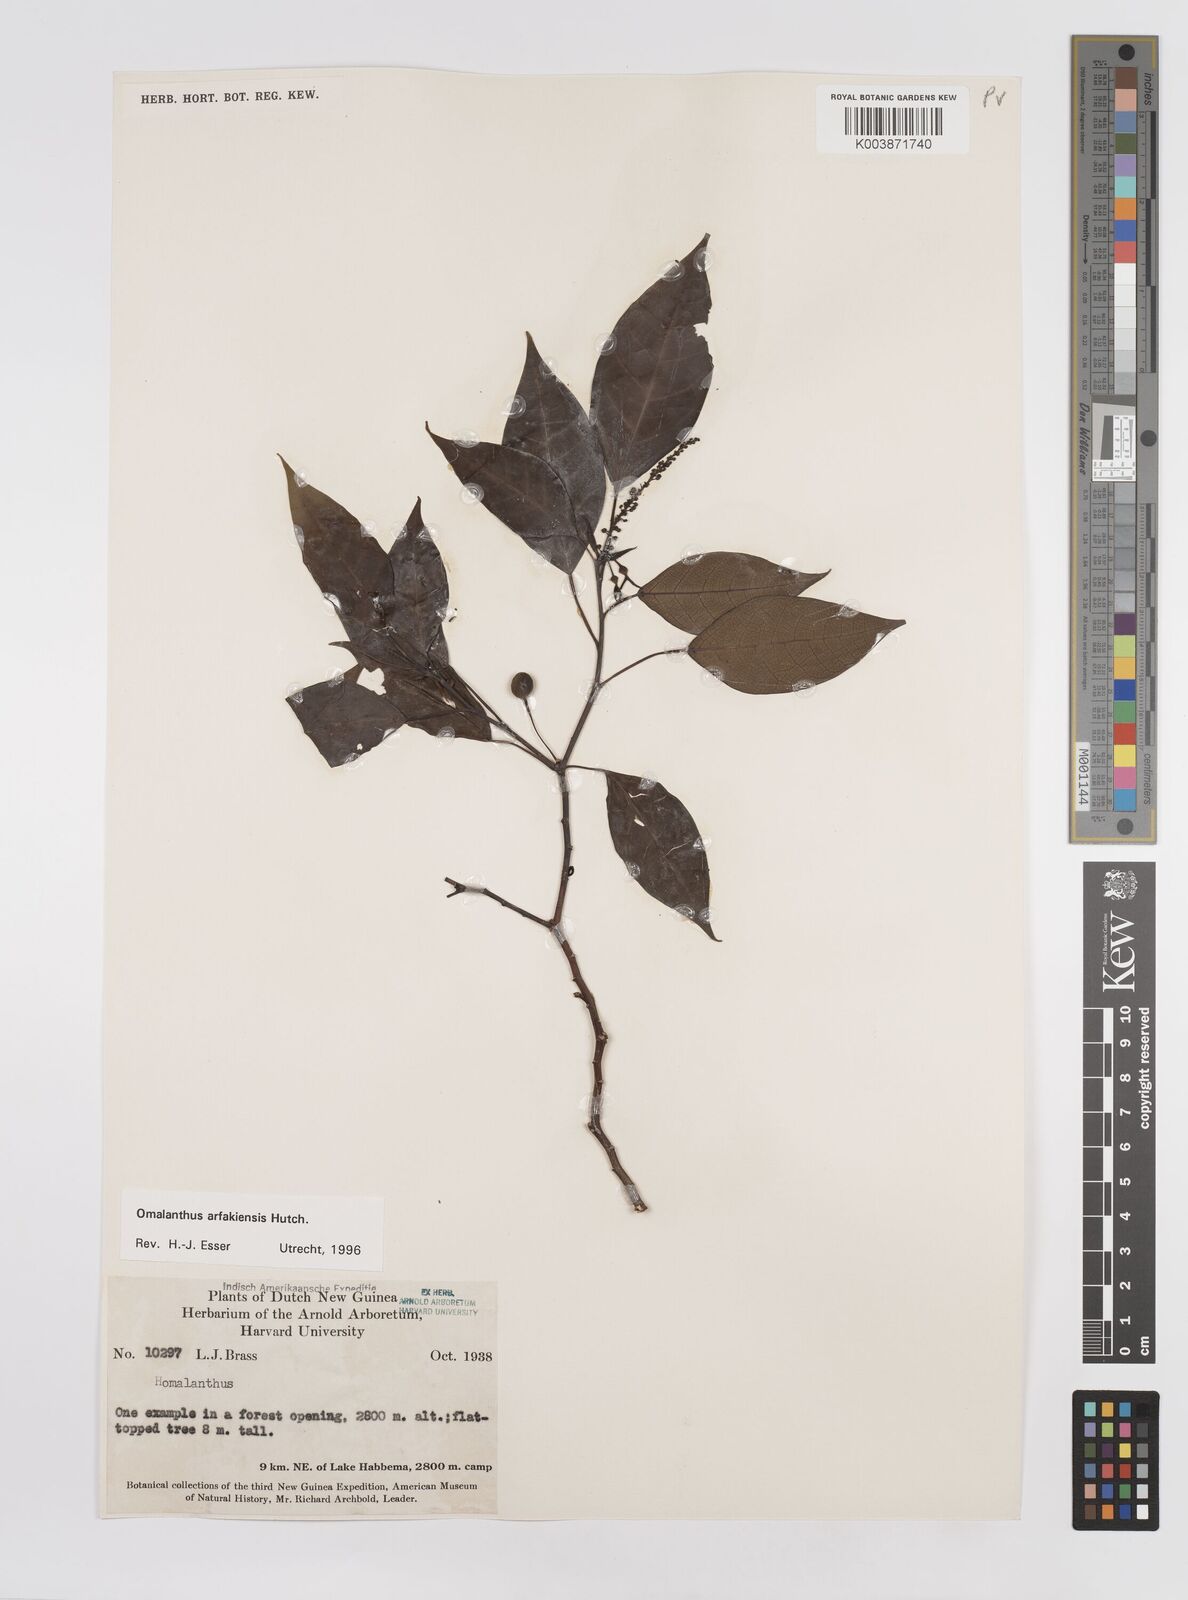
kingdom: Plantae
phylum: Tracheophyta
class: Magnoliopsida
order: Malpighiales
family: Euphorbiaceae
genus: Homalanthus
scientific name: Homalanthus arfakiensis
